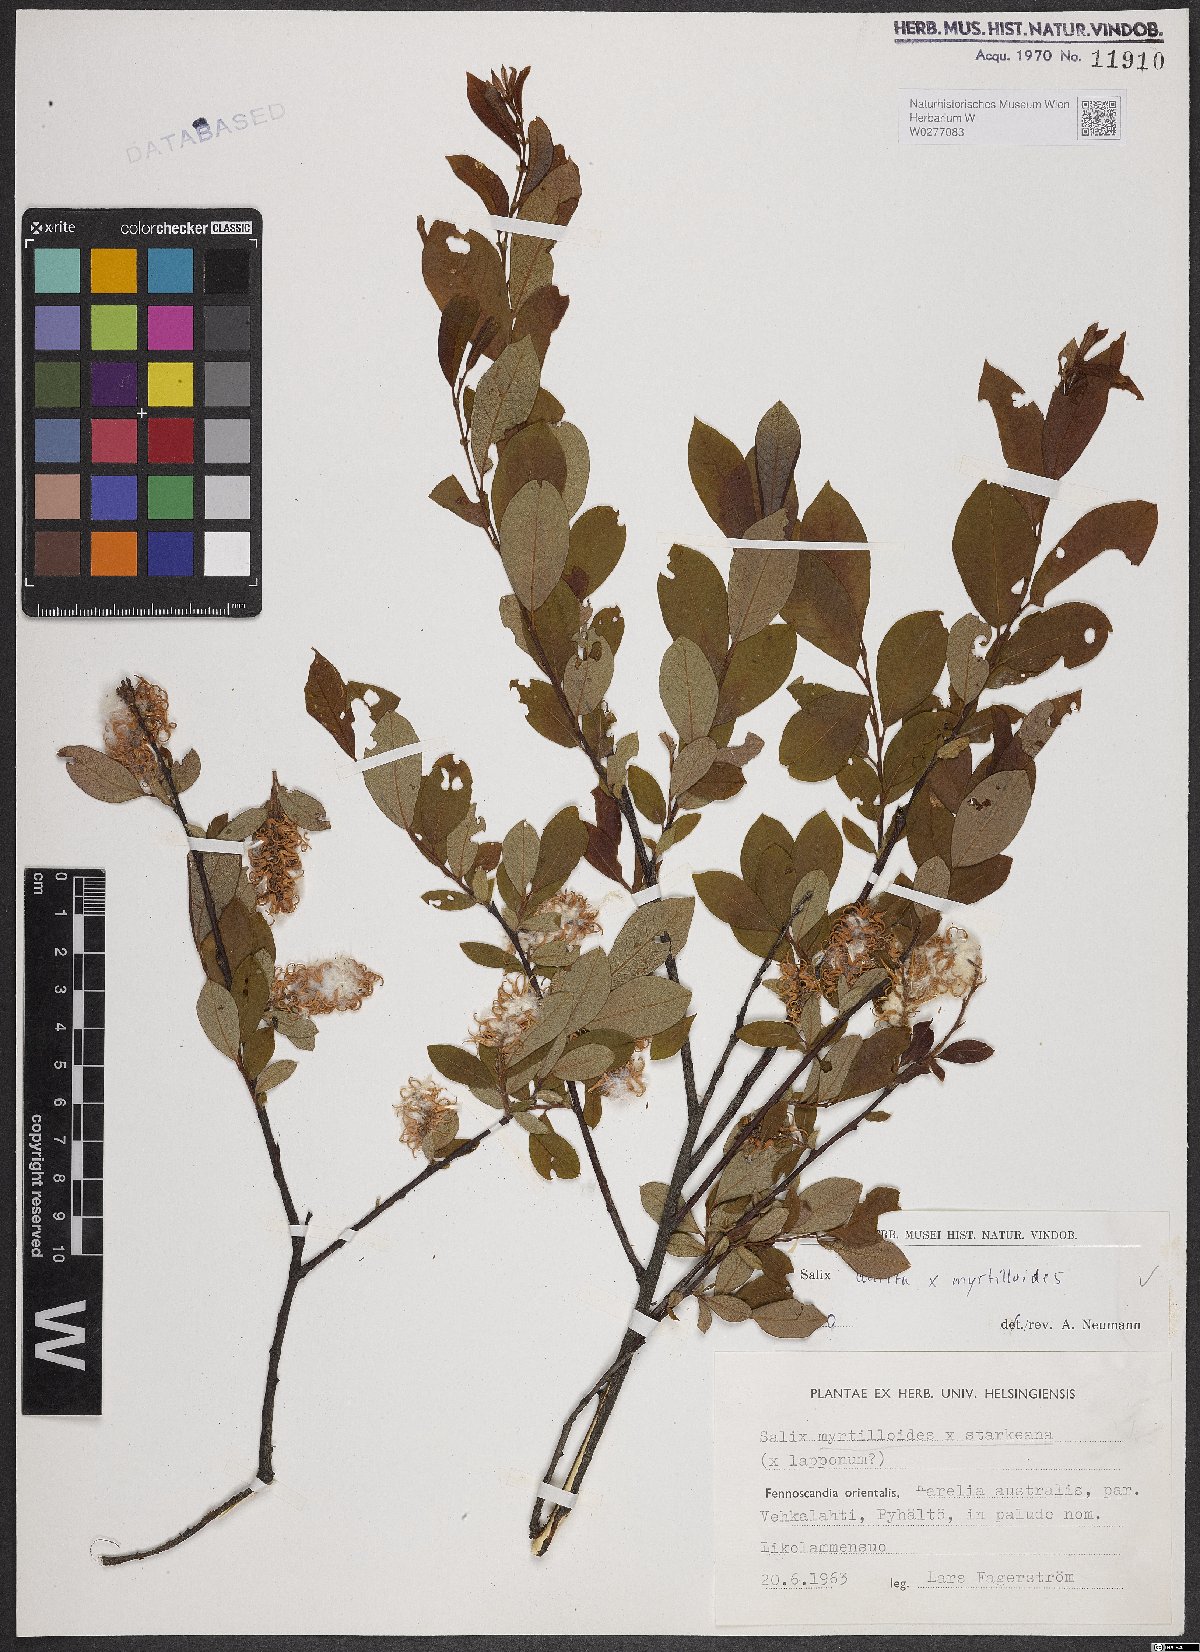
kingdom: Plantae
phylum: Tracheophyta
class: Magnoliopsida
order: Malpighiales
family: Salicaceae
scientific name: Salicaceae
